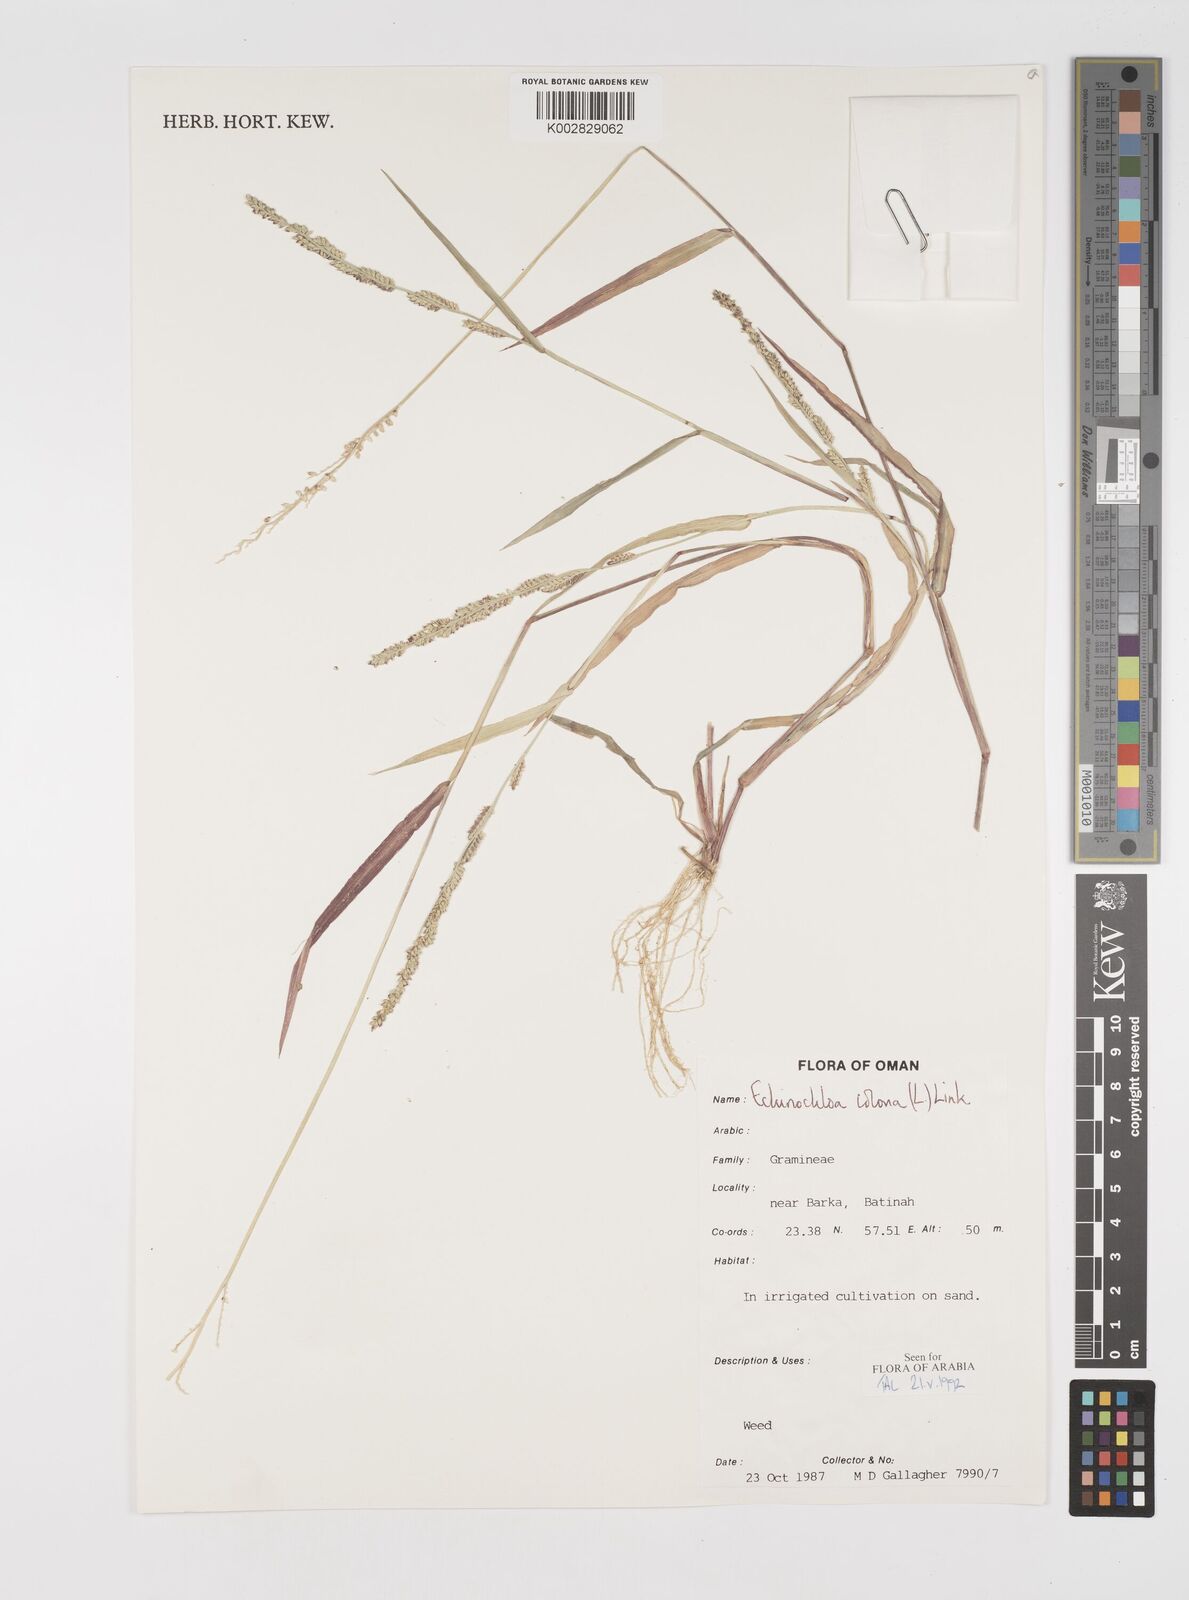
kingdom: Plantae
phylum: Tracheophyta
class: Liliopsida
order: Poales
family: Poaceae
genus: Echinochloa
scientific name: Echinochloa colonum
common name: Jungle rice
